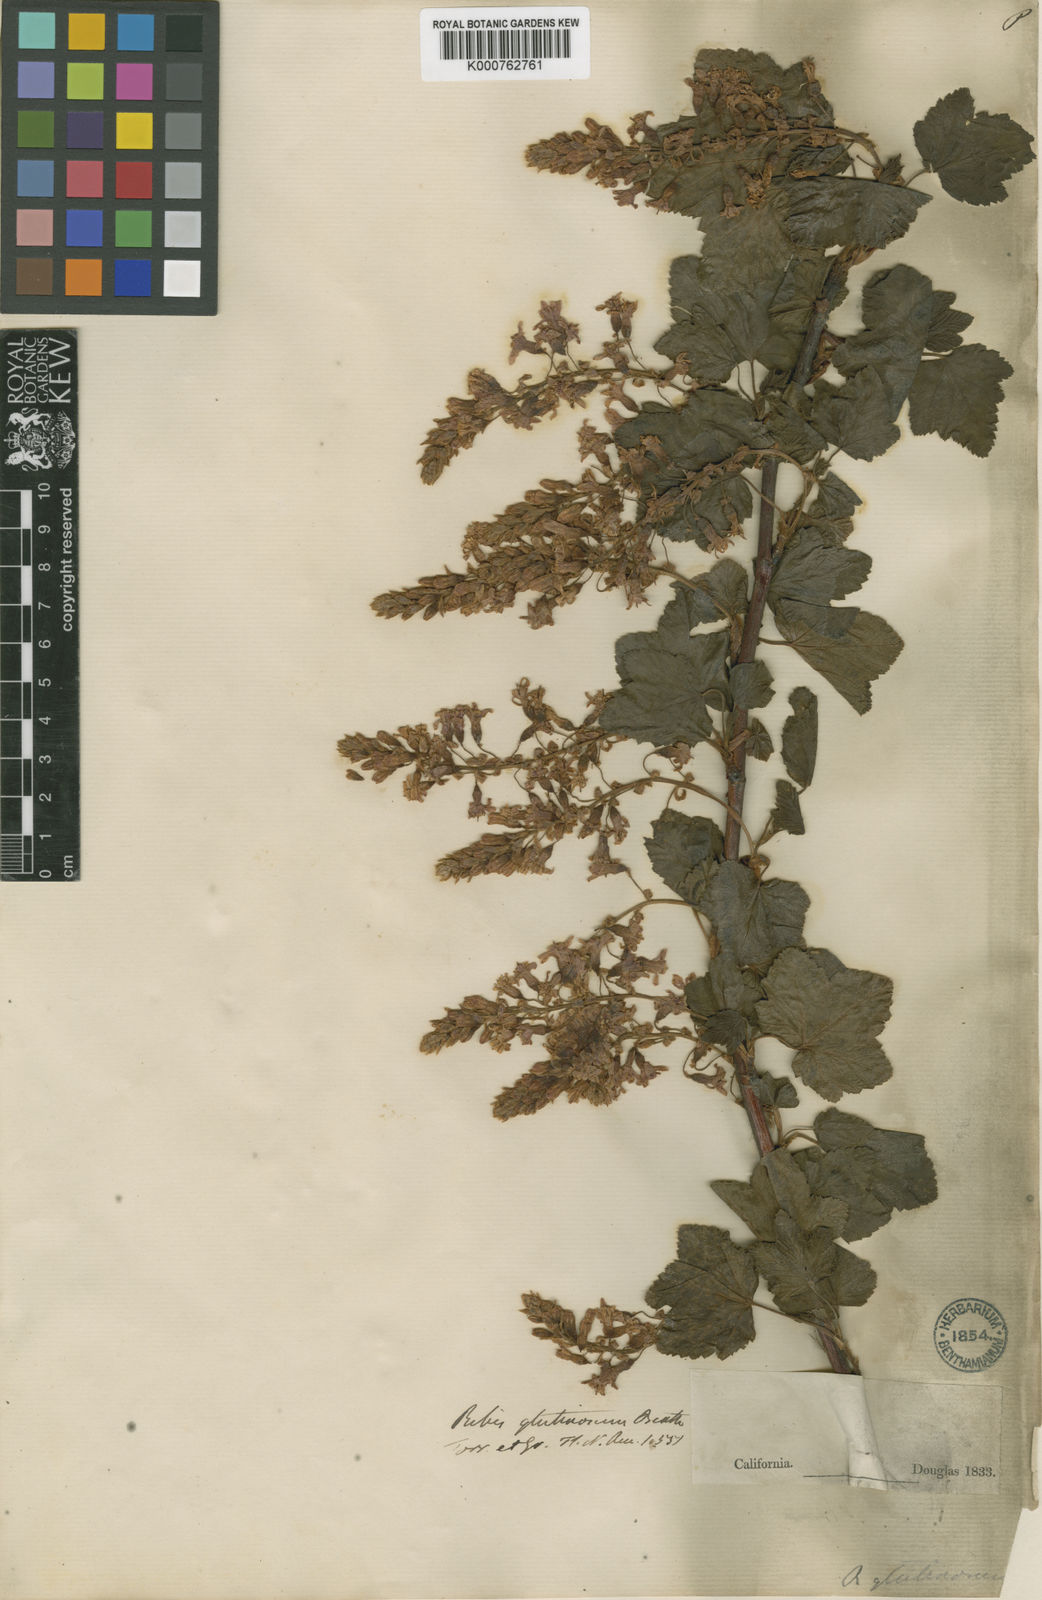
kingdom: Plantae
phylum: Tracheophyta
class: Magnoliopsida
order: Saxifragales
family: Grossulariaceae
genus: Ribes
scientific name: Ribes sanguineum
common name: Flowering currant
